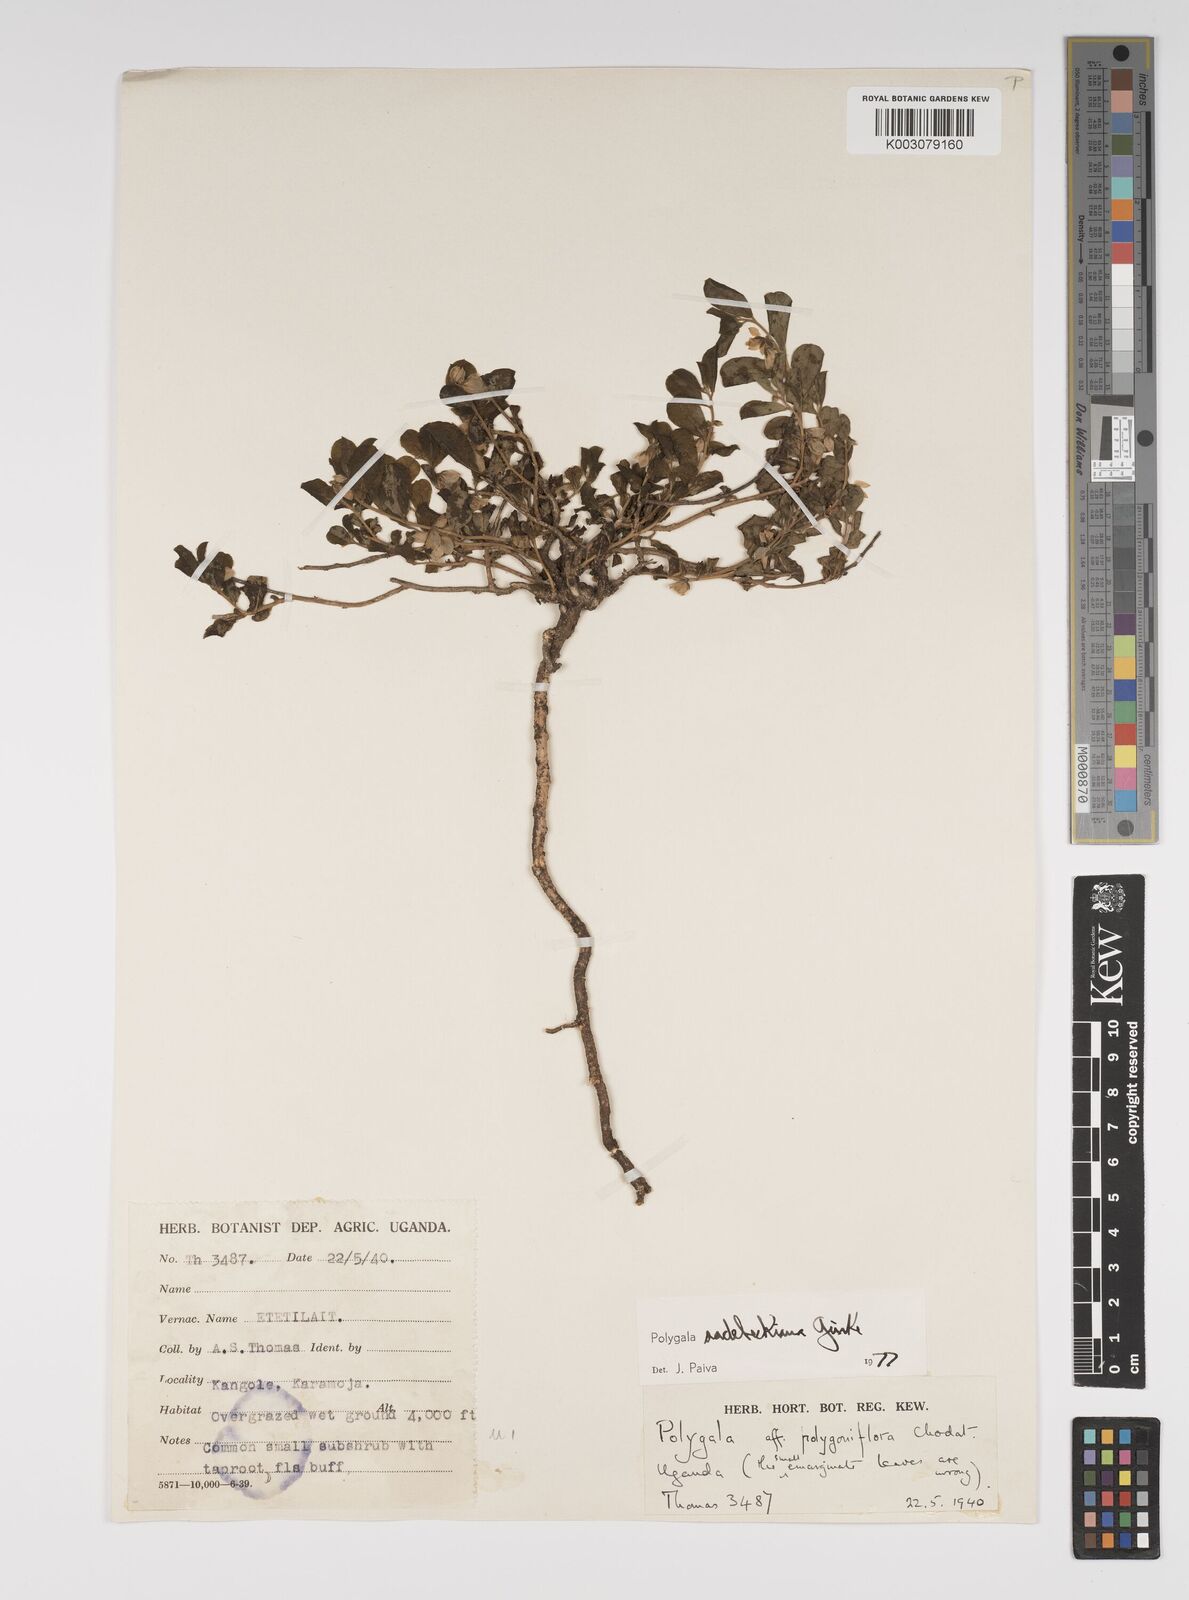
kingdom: Plantae
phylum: Tracheophyta
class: Magnoliopsida
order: Fabales
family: Polygalaceae
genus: Polygala
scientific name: Polygala sadebeckiana
